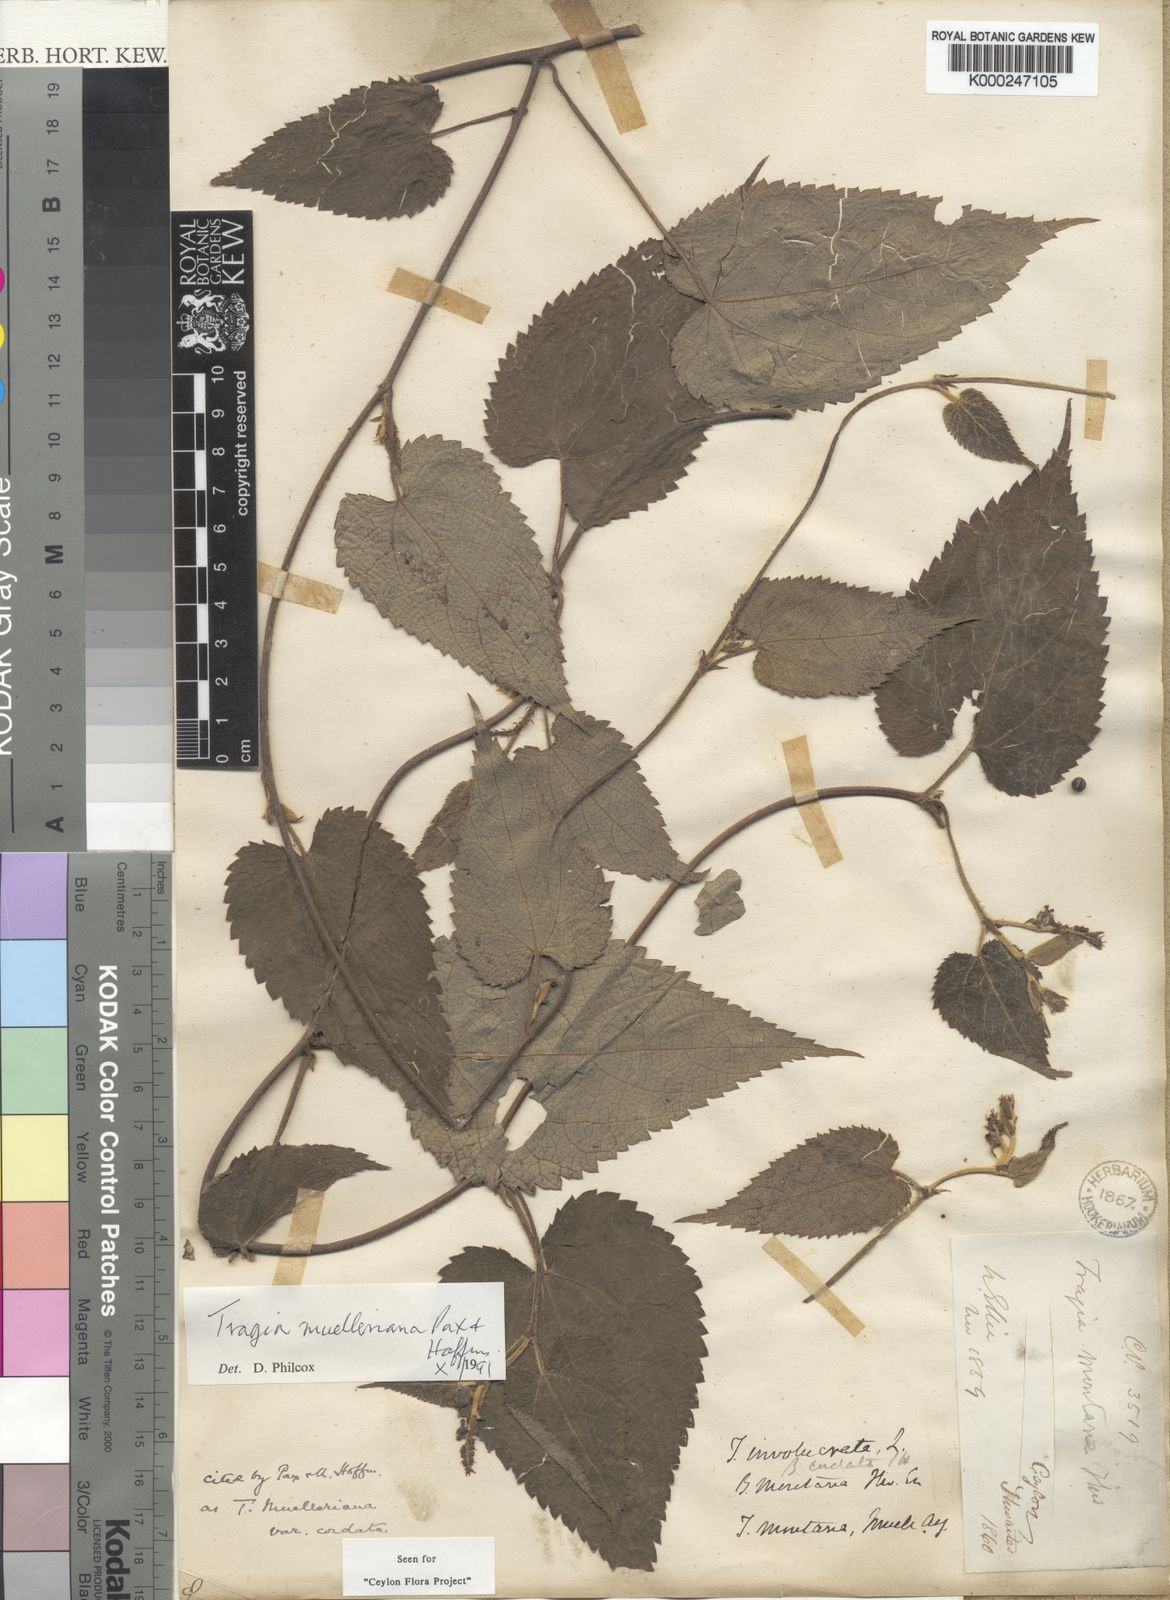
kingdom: Plantae
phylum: Tracheophyta
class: Magnoliopsida
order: Malpighiales
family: Euphorbiaceae
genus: Tragia
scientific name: Tragia montana
